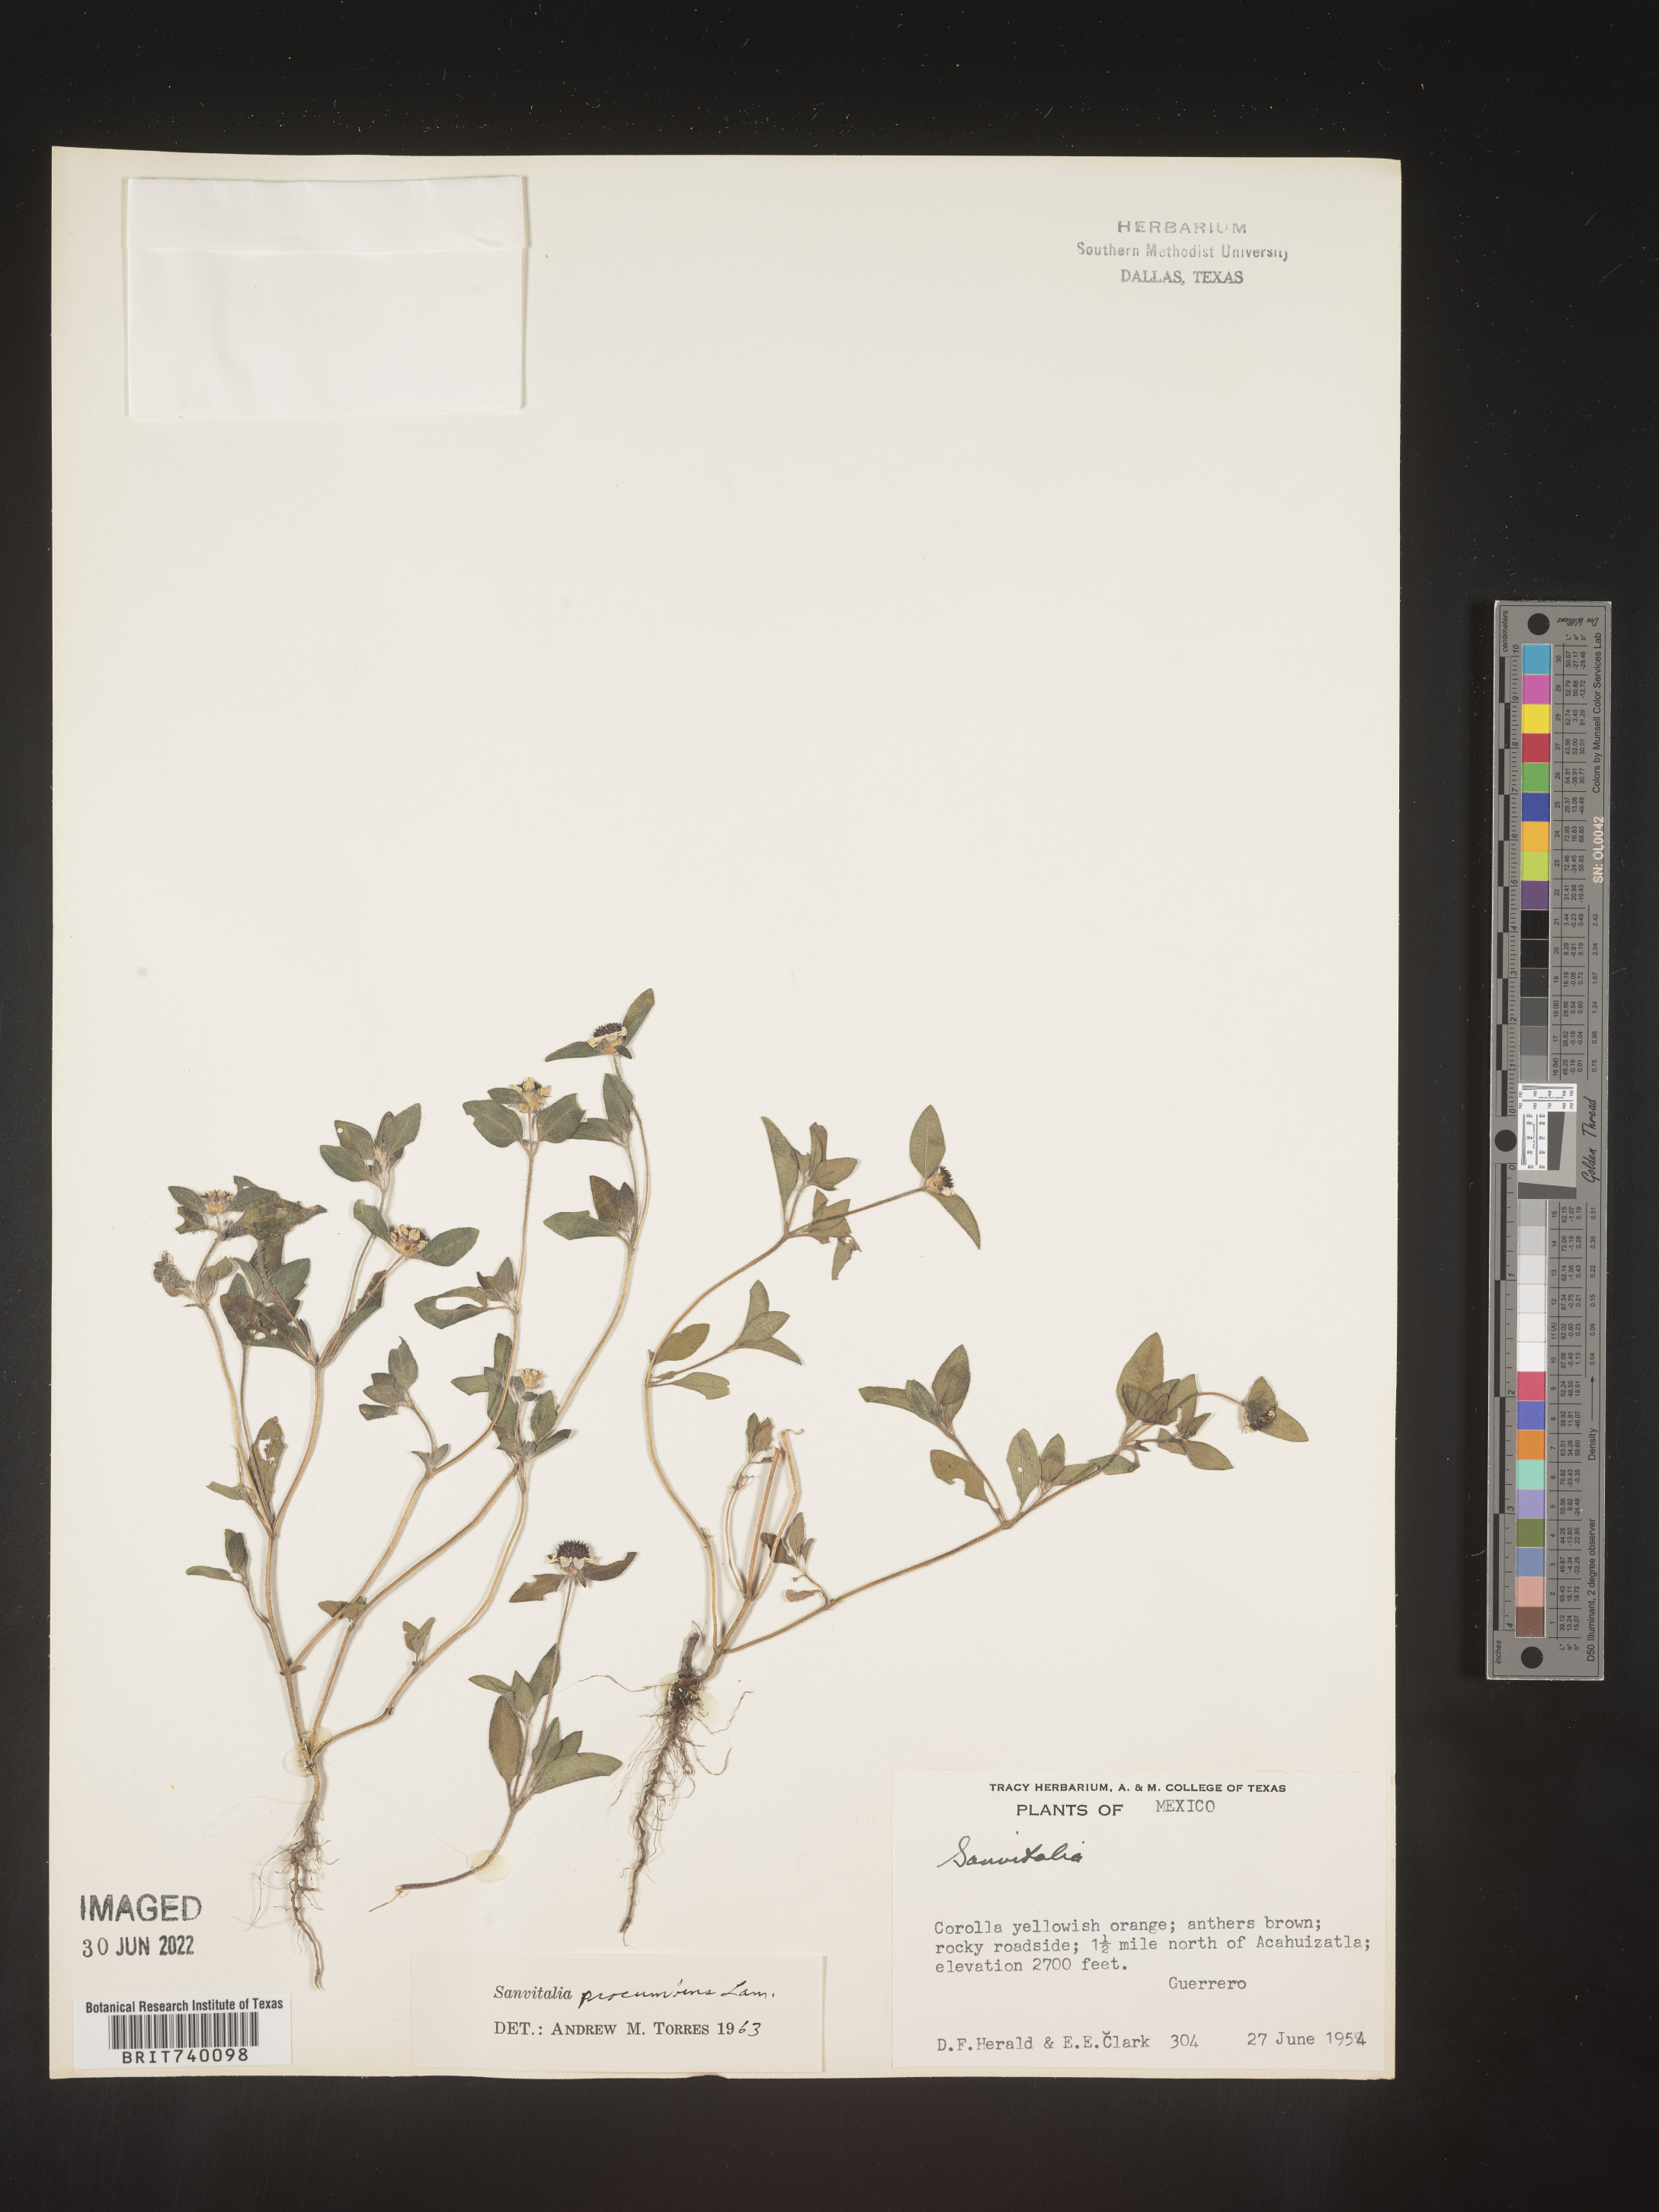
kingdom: Plantae
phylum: Tracheophyta
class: Magnoliopsida
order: Asterales
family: Asteraceae
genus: Sanvitalia
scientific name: Sanvitalia
